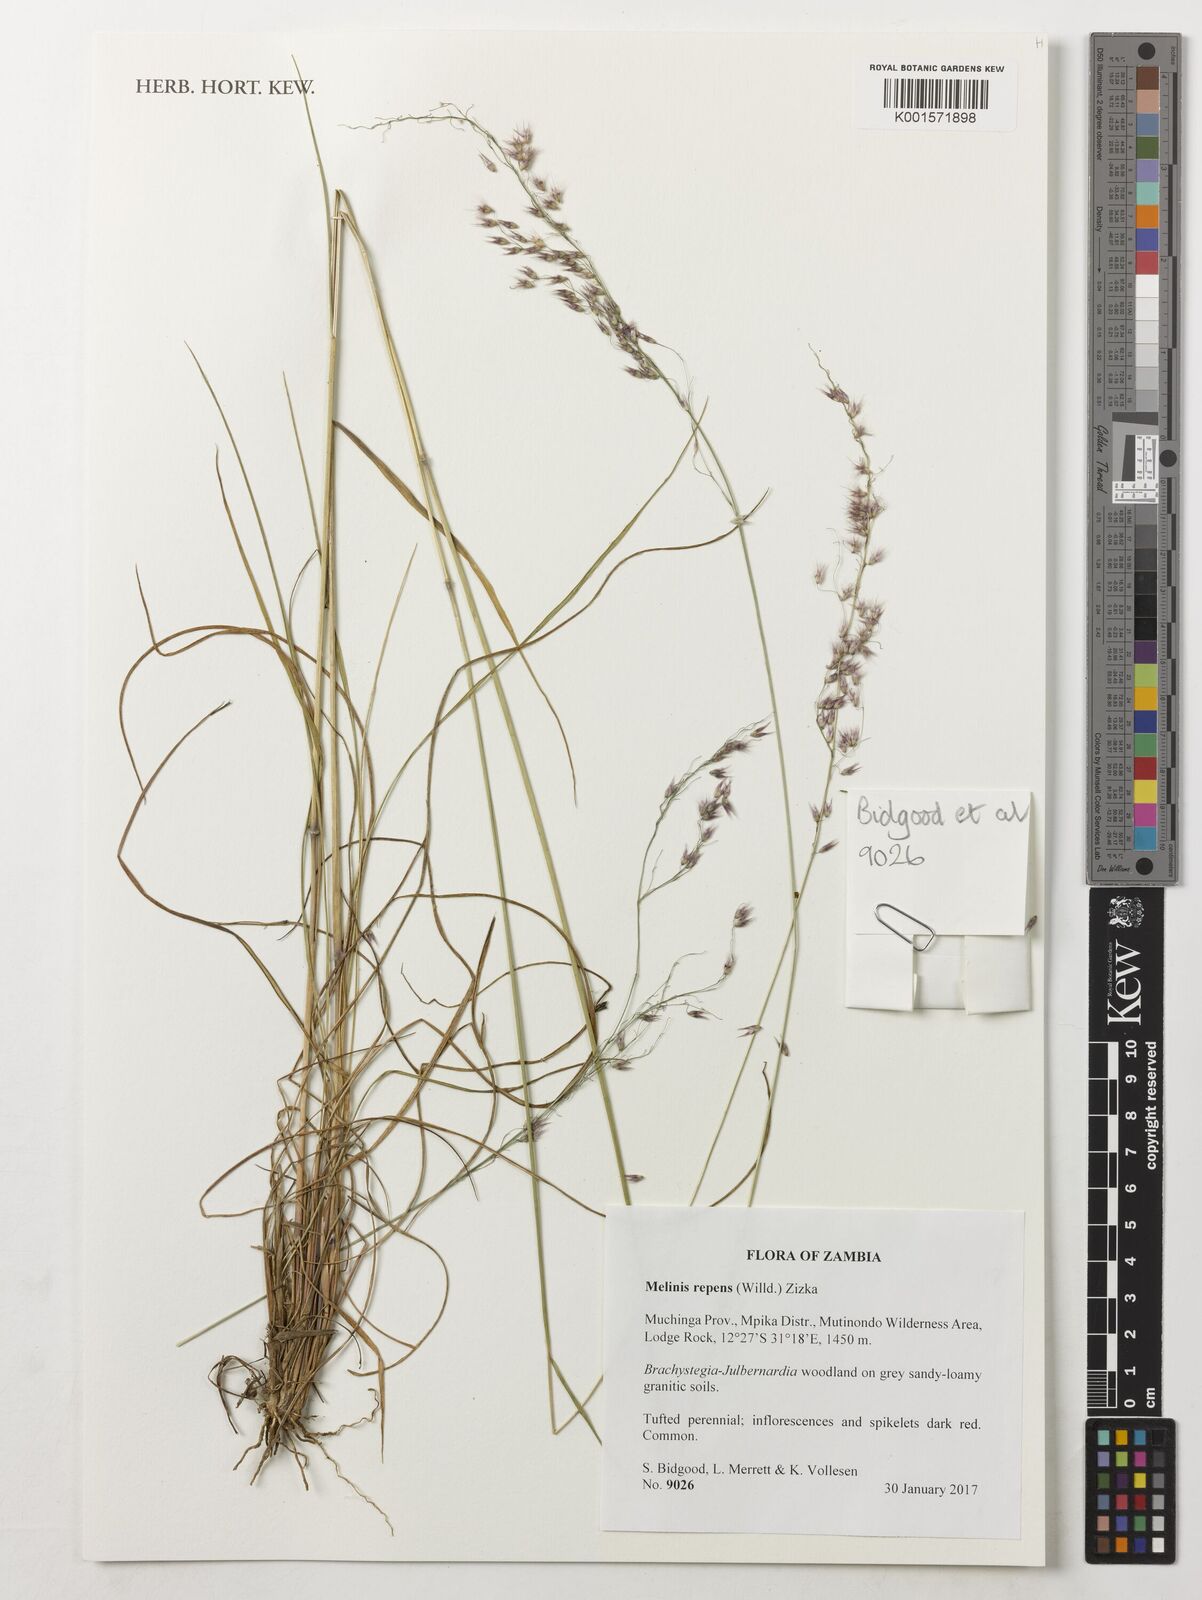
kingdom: Plantae
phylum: Tracheophyta
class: Liliopsida
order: Poales
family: Poaceae
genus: Melinis
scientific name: Melinis repens
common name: Rose natal grass
